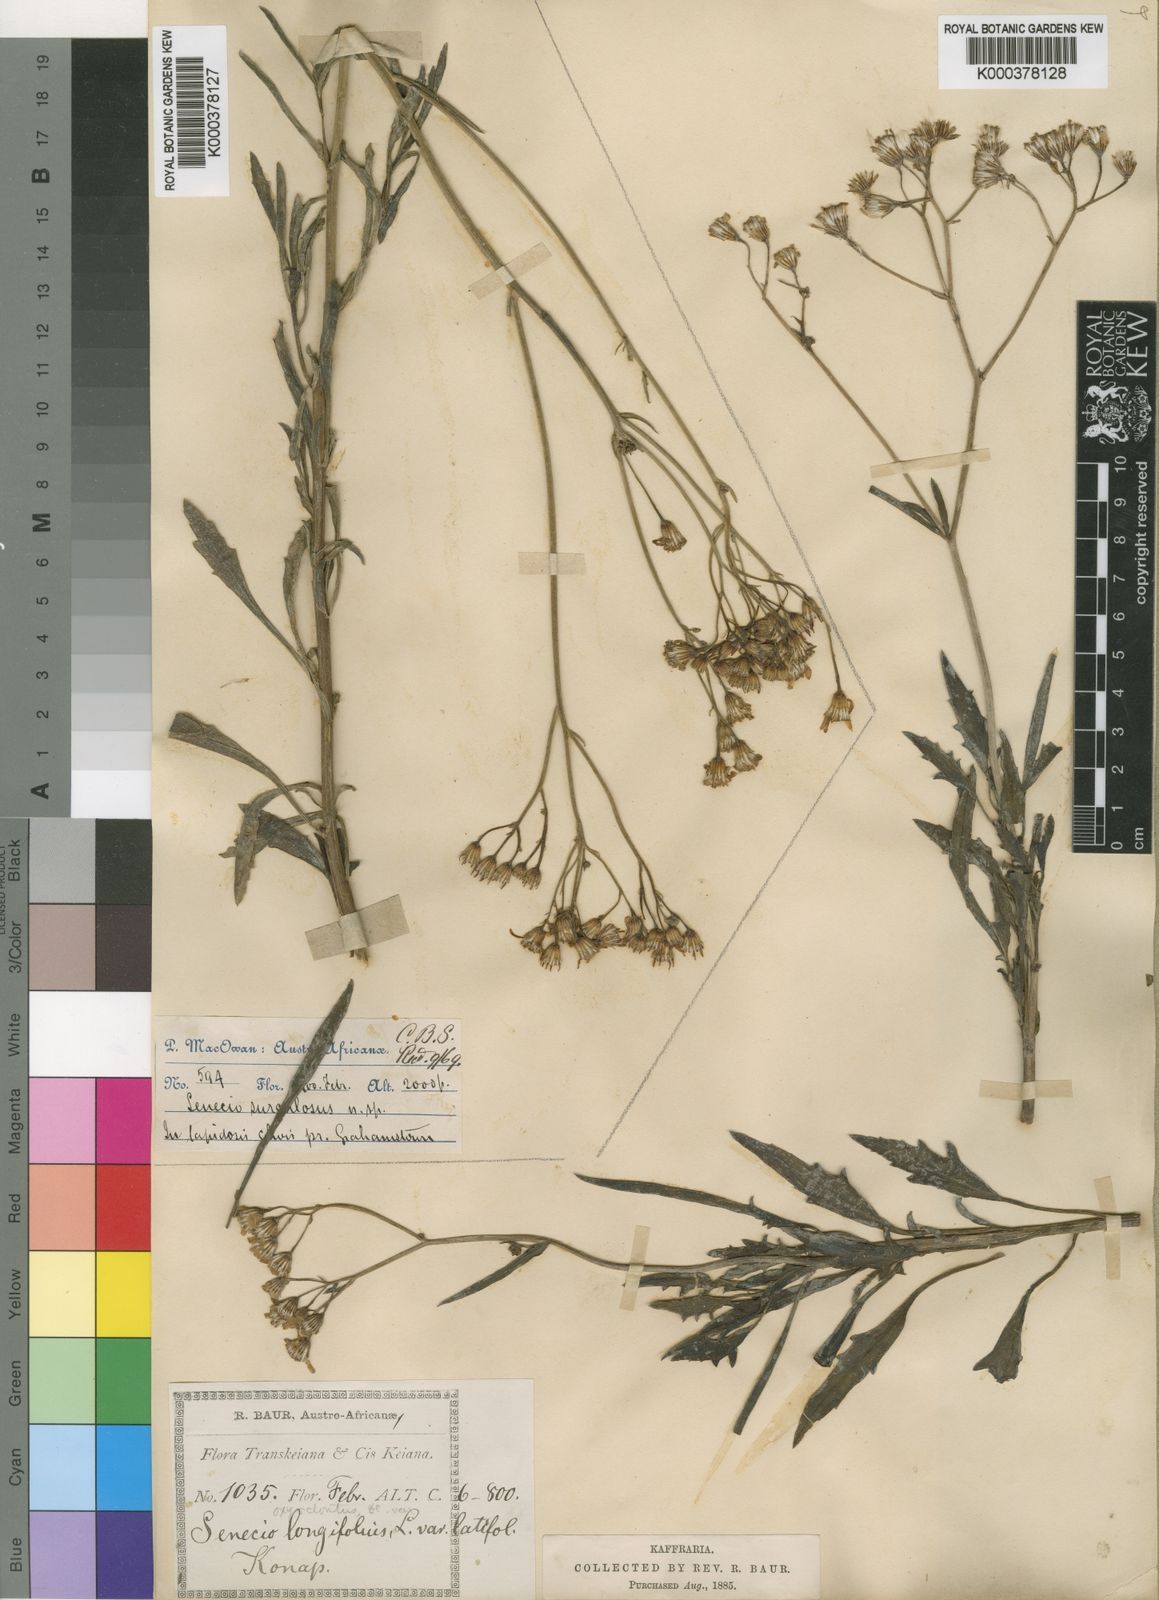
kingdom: Plantae
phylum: Tracheophyta
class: Magnoliopsida
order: Asterales
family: Asteraceae
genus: Senecio
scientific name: Senecio surculosus
